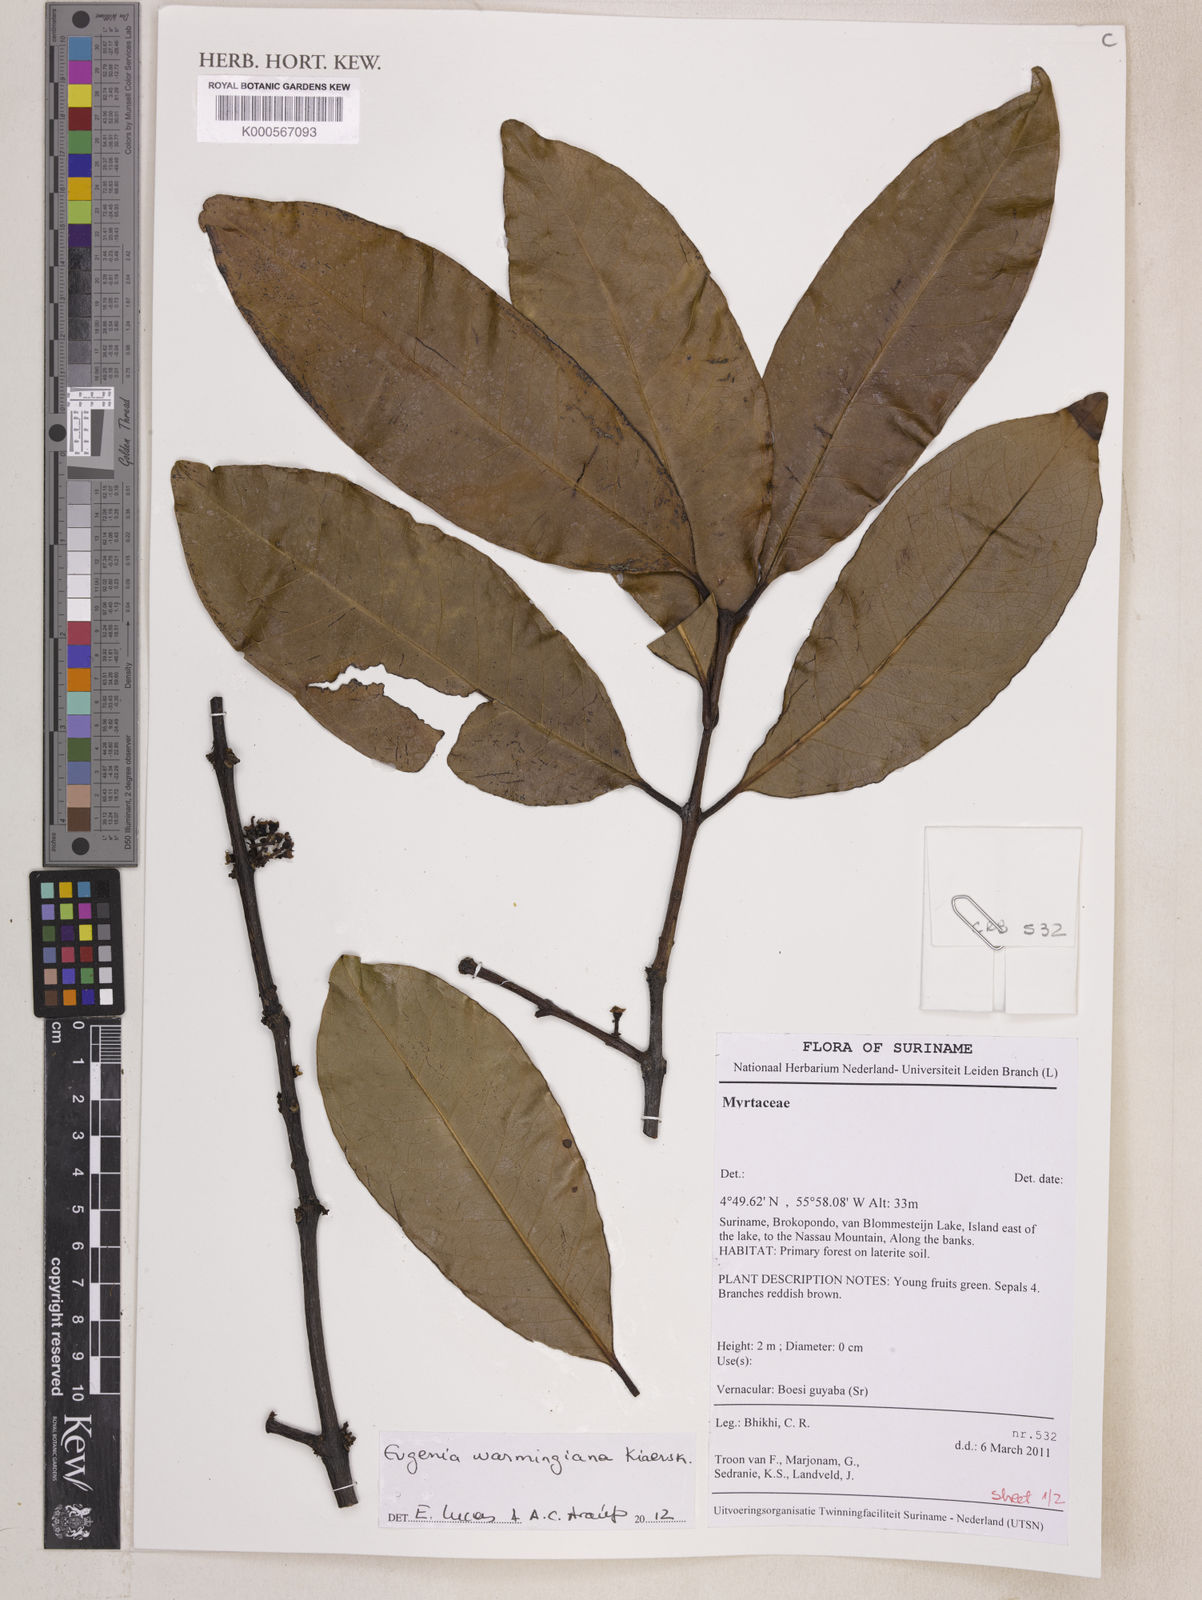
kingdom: Plantae
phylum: Tracheophyta
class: Magnoliopsida
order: Myrtales
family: Myrtaceae
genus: Eugenia
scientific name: Eugenia warmingiana
